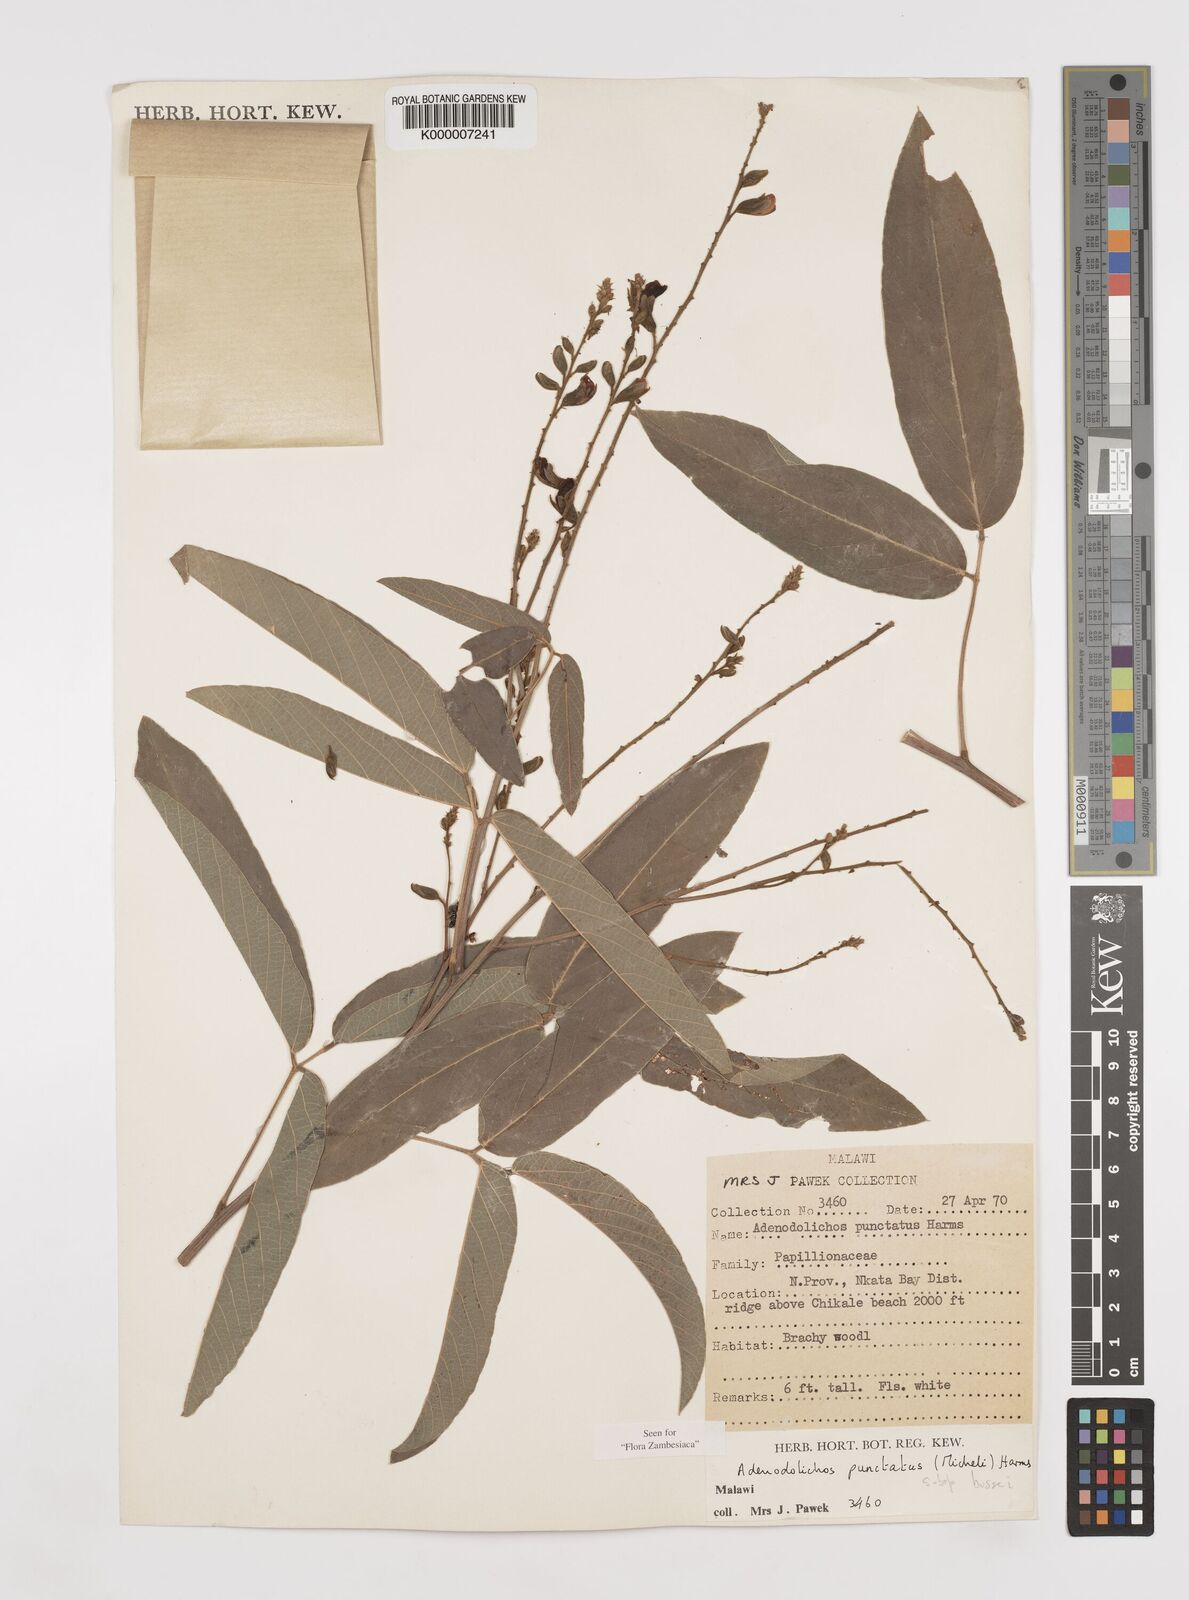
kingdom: Plantae
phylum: Tracheophyta
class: Magnoliopsida
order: Fabales
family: Fabaceae
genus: Adenodolichos
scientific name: Adenodolichos punctatus
